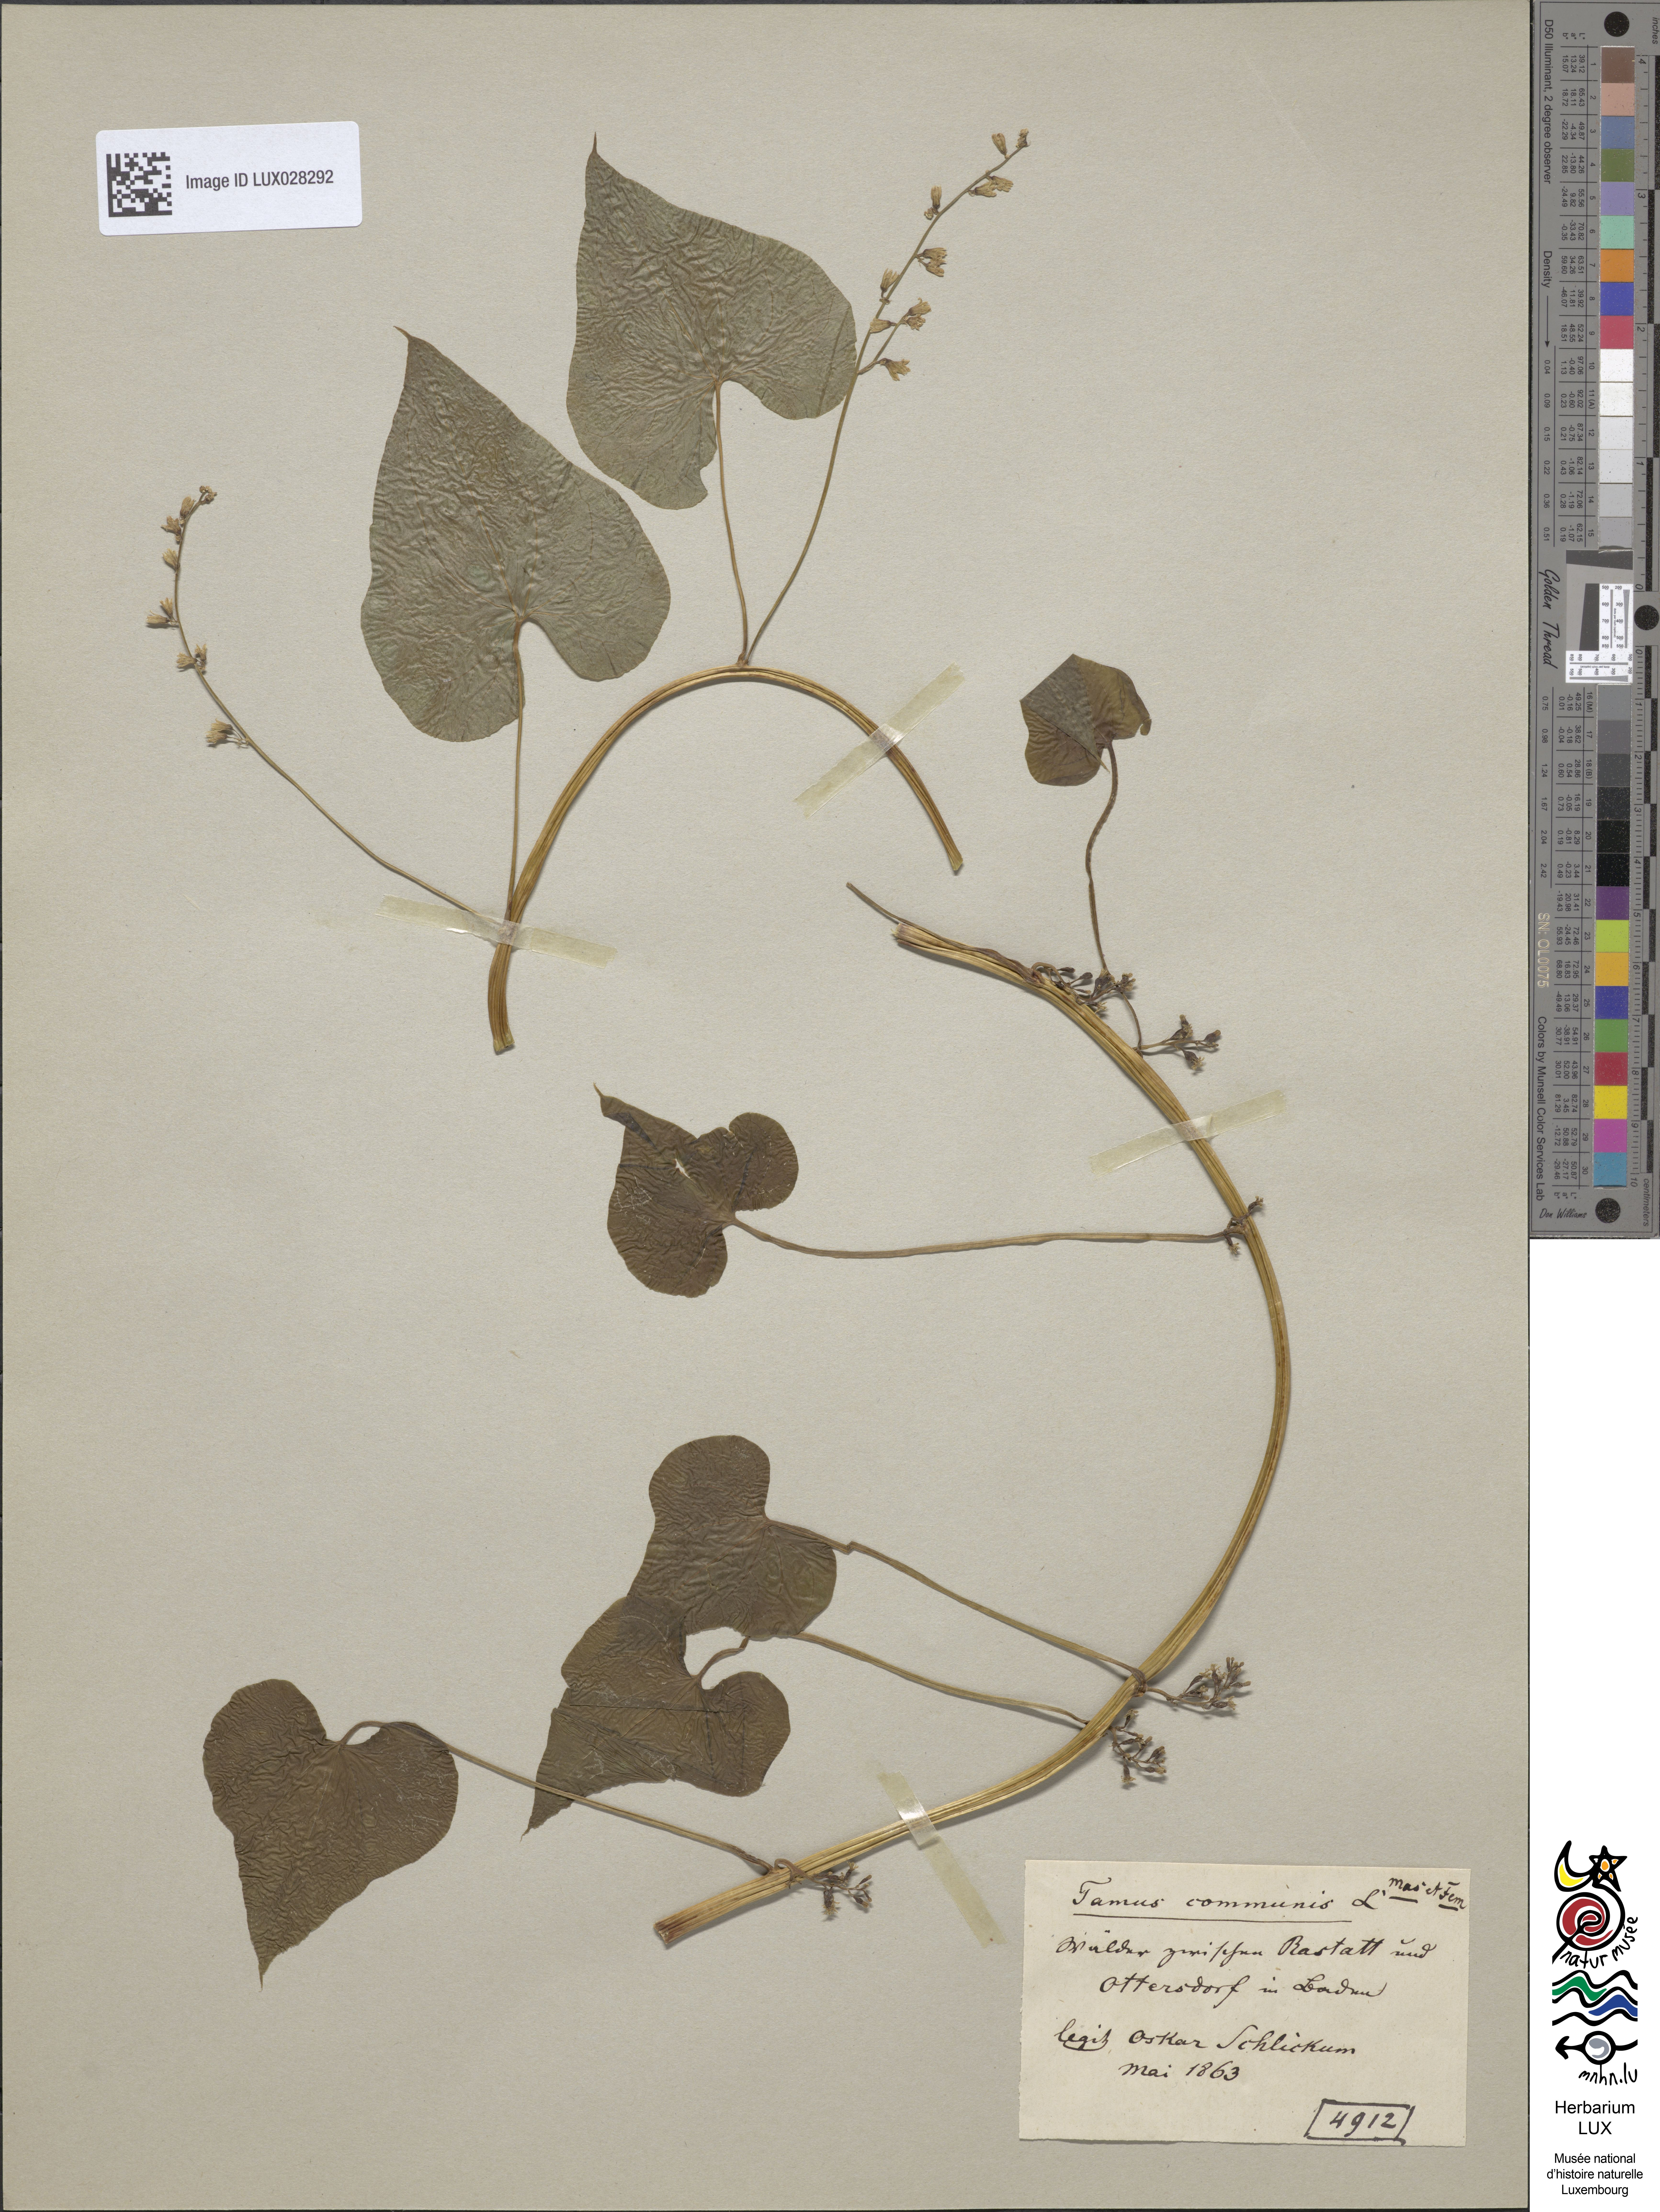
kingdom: Plantae
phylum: Tracheophyta
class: Liliopsida
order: Dioscoreales
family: Dioscoreaceae
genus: Dioscorea
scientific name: Dioscorea communis
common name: Black-bindweed
